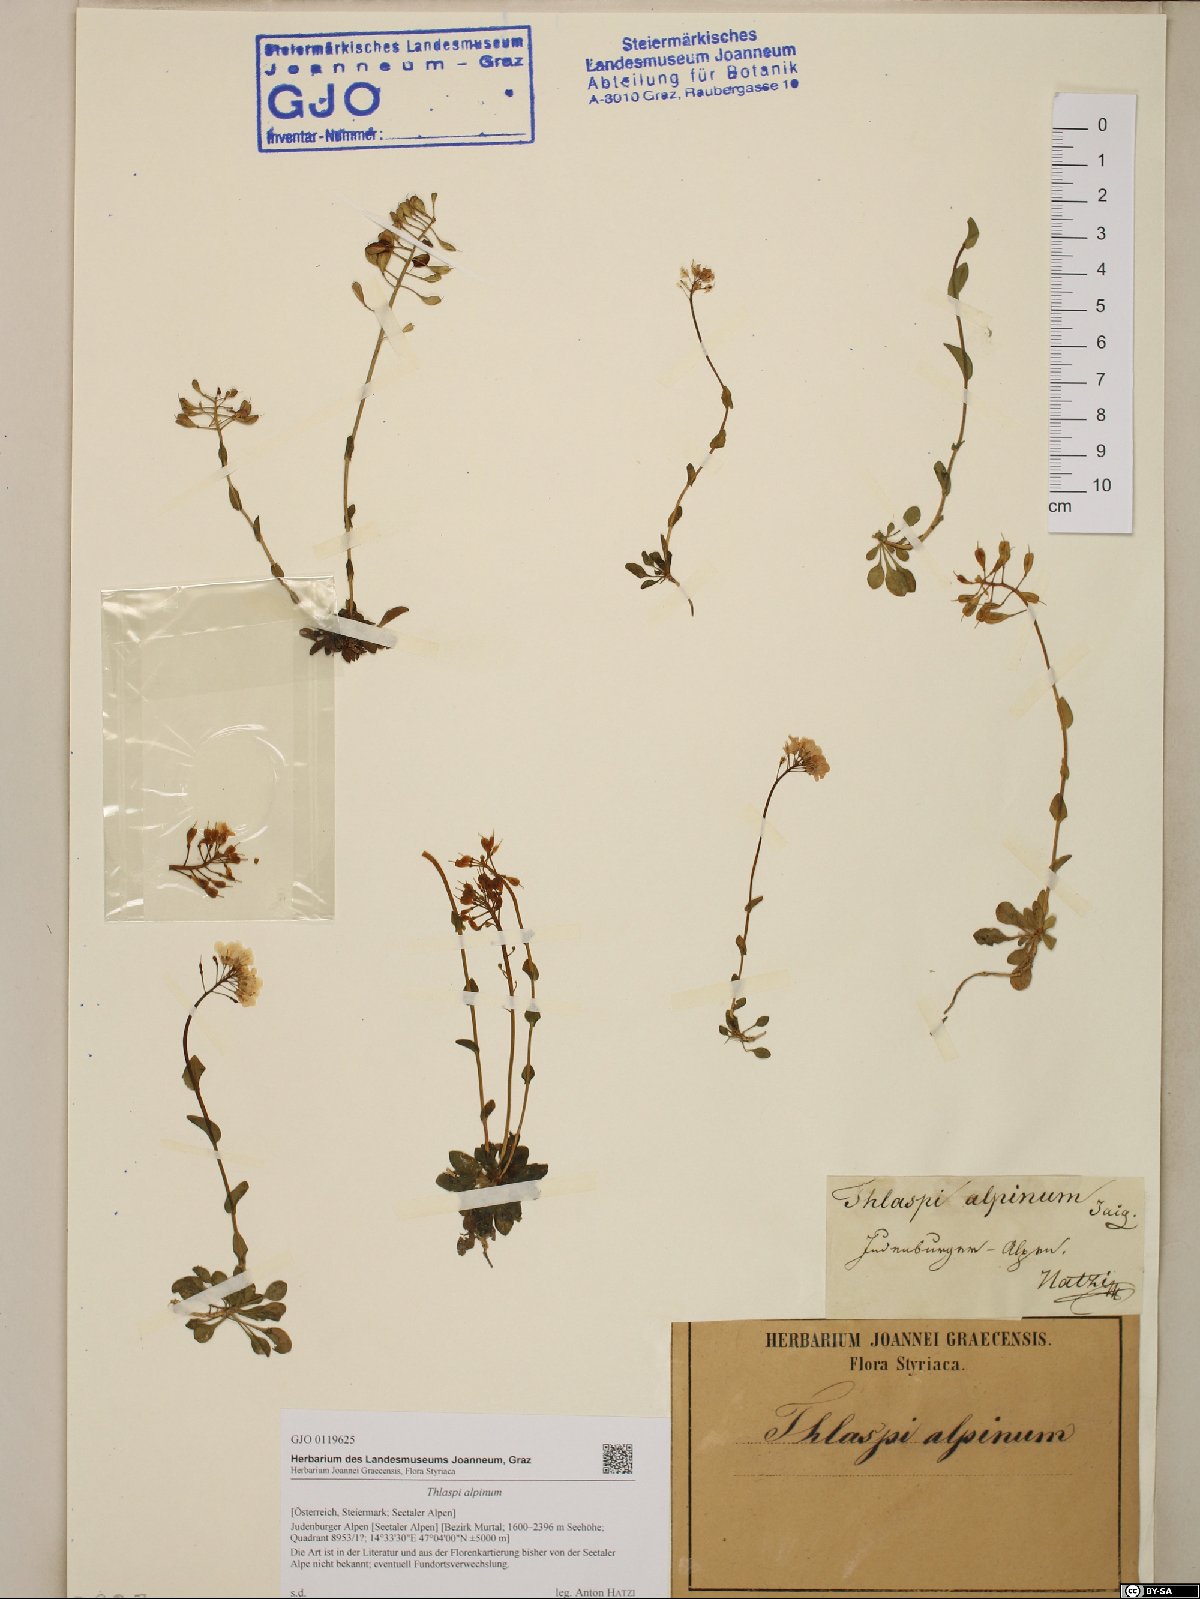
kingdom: Plantae
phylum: Tracheophyta
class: Magnoliopsida
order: Brassicales
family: Brassicaceae
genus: Noccaea
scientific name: Noccaea alpestris
